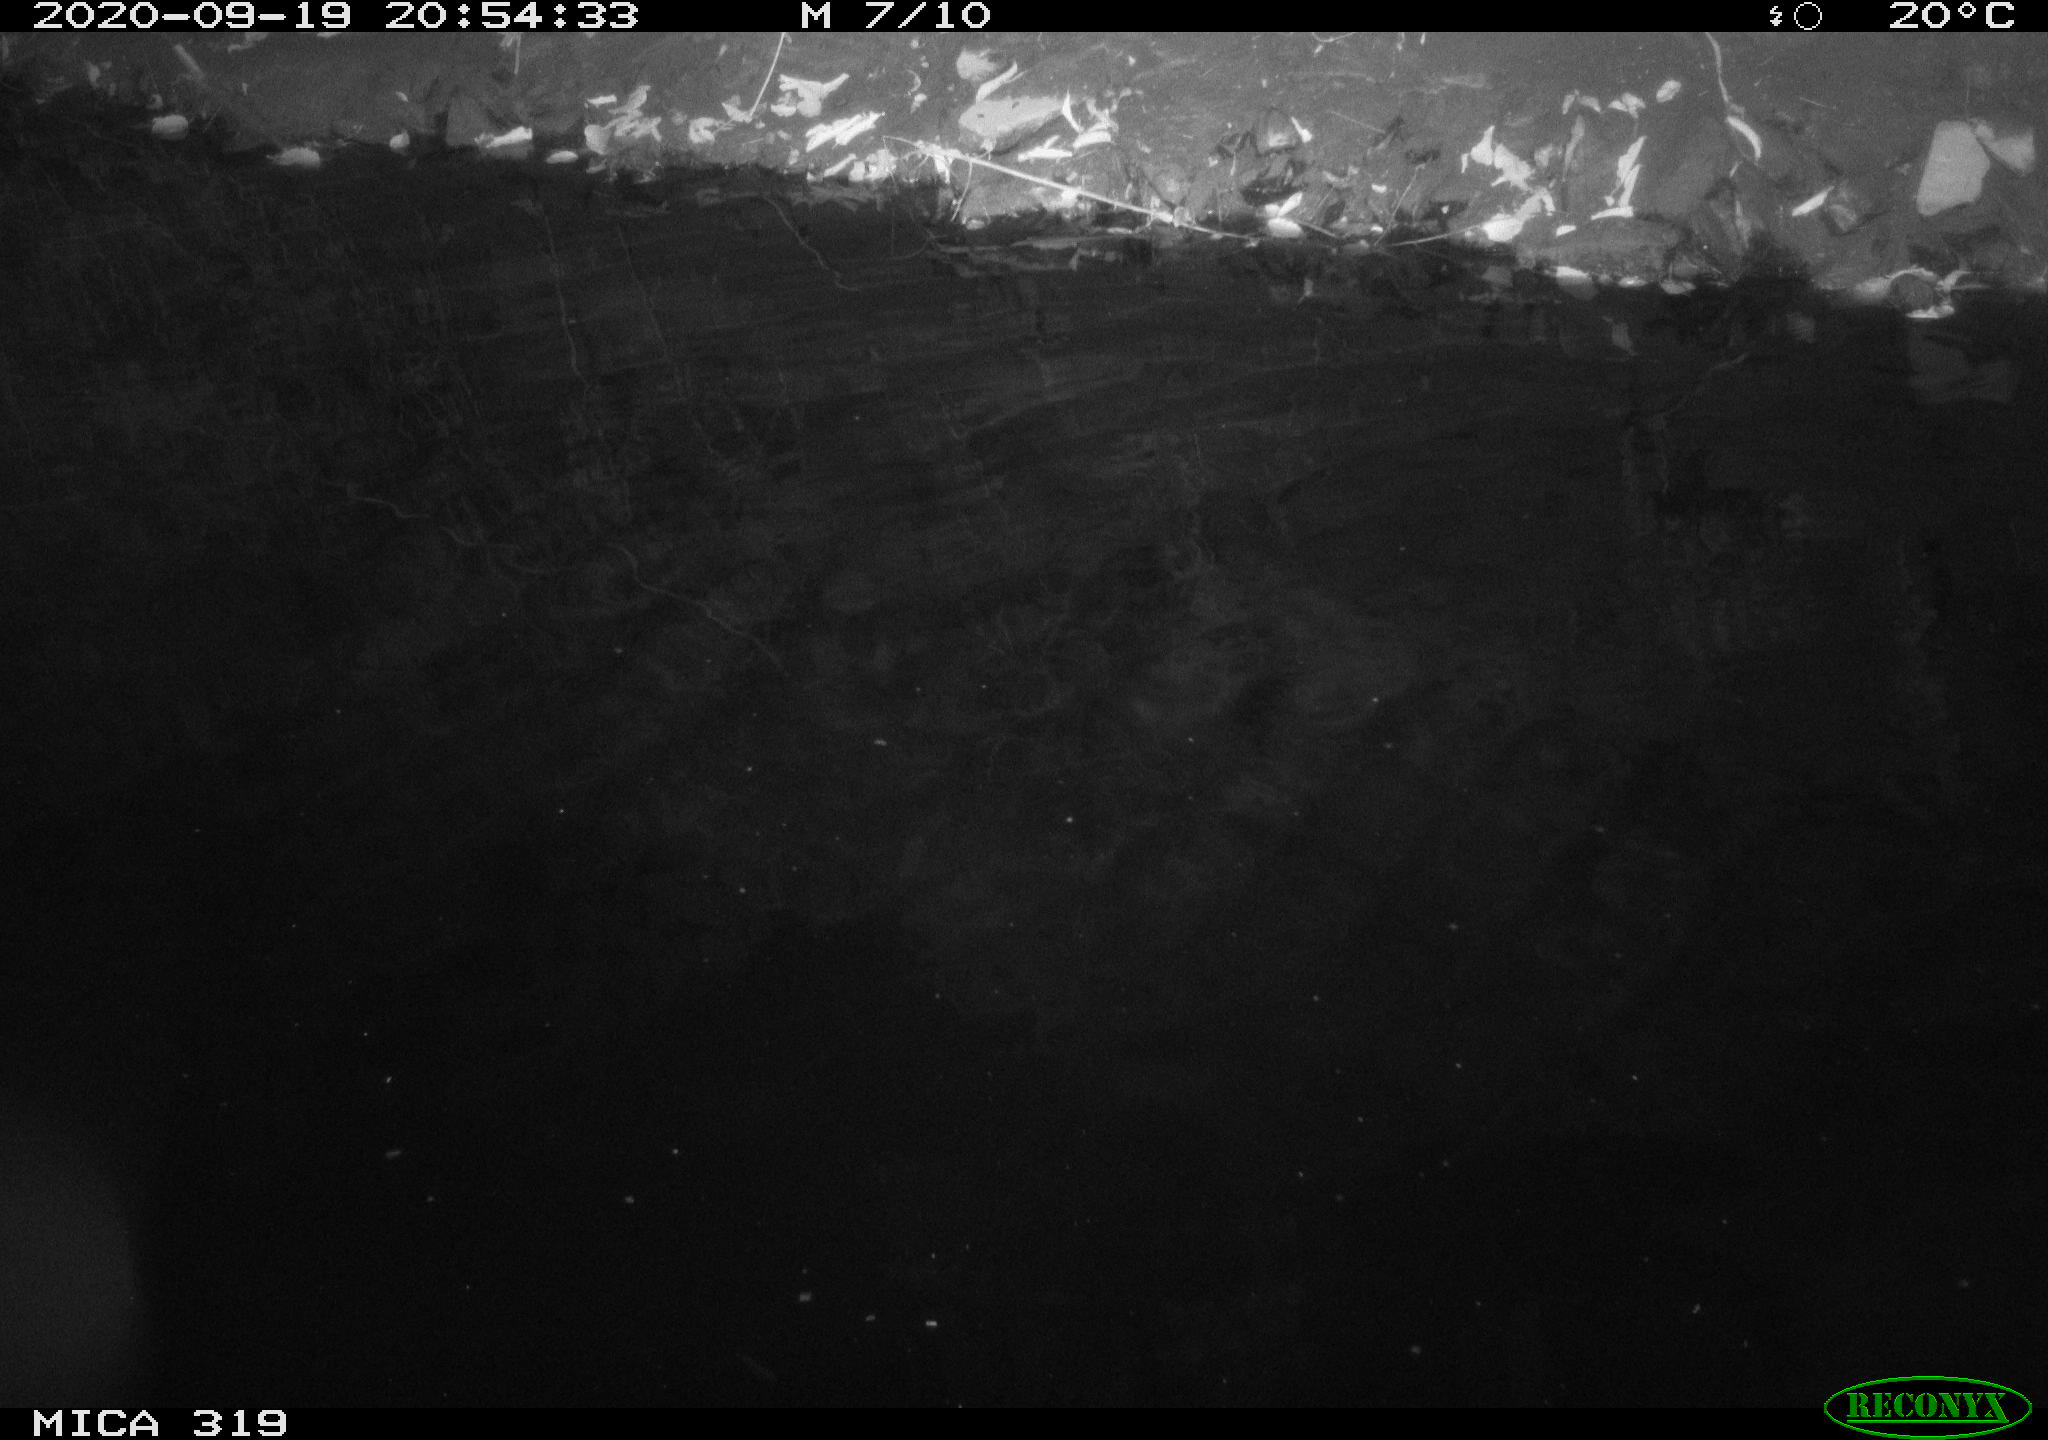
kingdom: Animalia
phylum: Chordata
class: Aves
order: Anseriformes
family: Anatidae
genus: Anas
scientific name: Anas platyrhynchos
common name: Mallard
